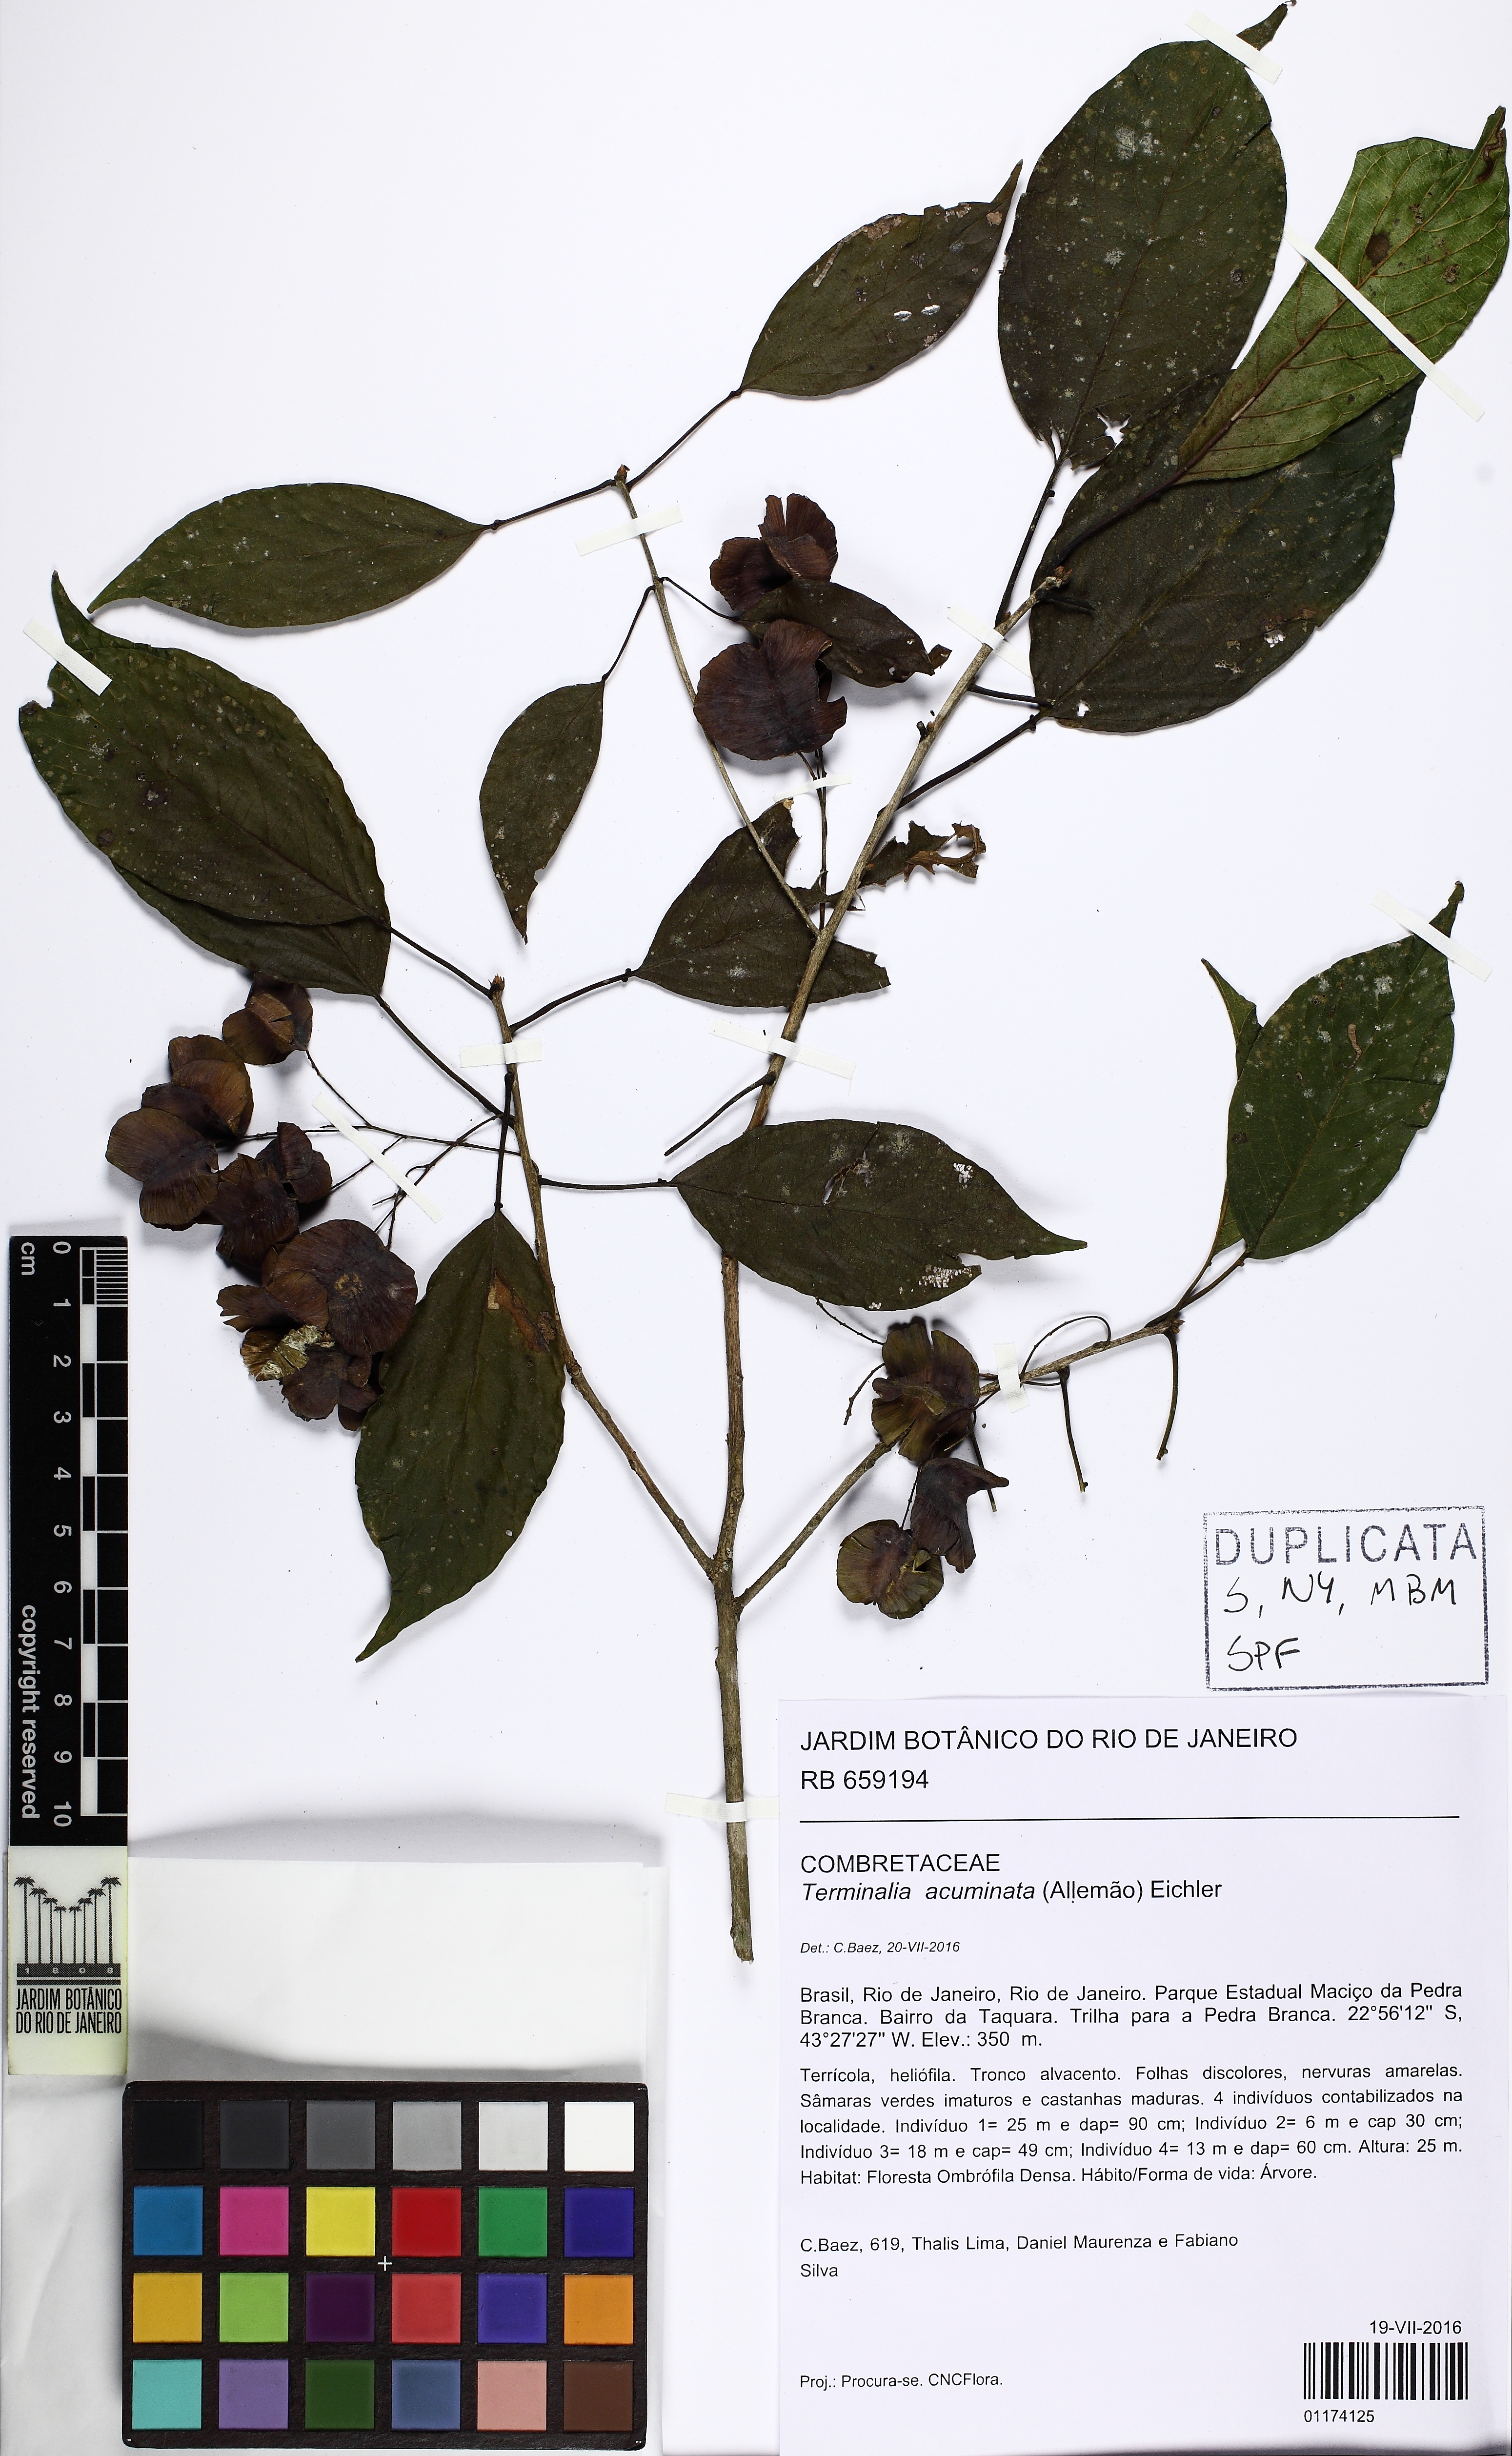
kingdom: Plantae
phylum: Tracheophyta
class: Magnoliopsida
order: Myrtales
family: Combretaceae
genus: Terminalia
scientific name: Terminalia acuminata
